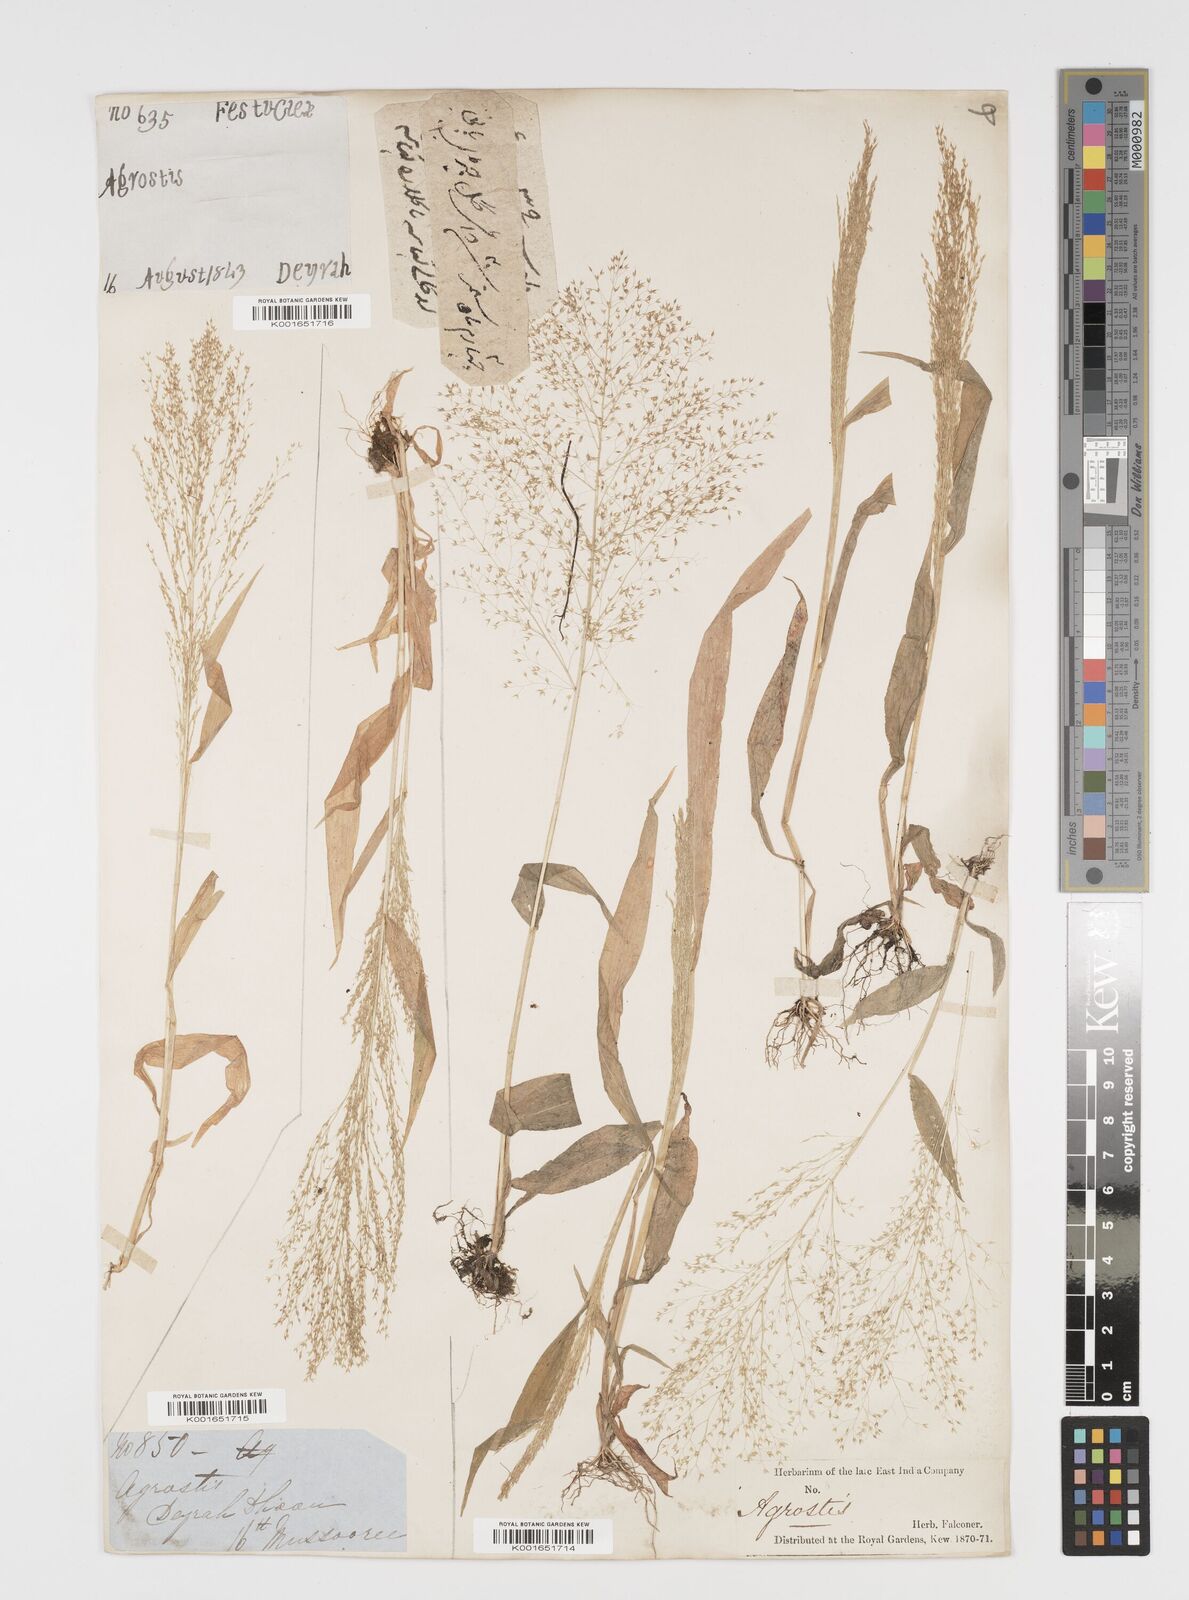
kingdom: Plantae
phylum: Tracheophyta
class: Liliopsida
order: Poales
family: Poaceae
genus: Arundinella
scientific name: Arundinella pumila
